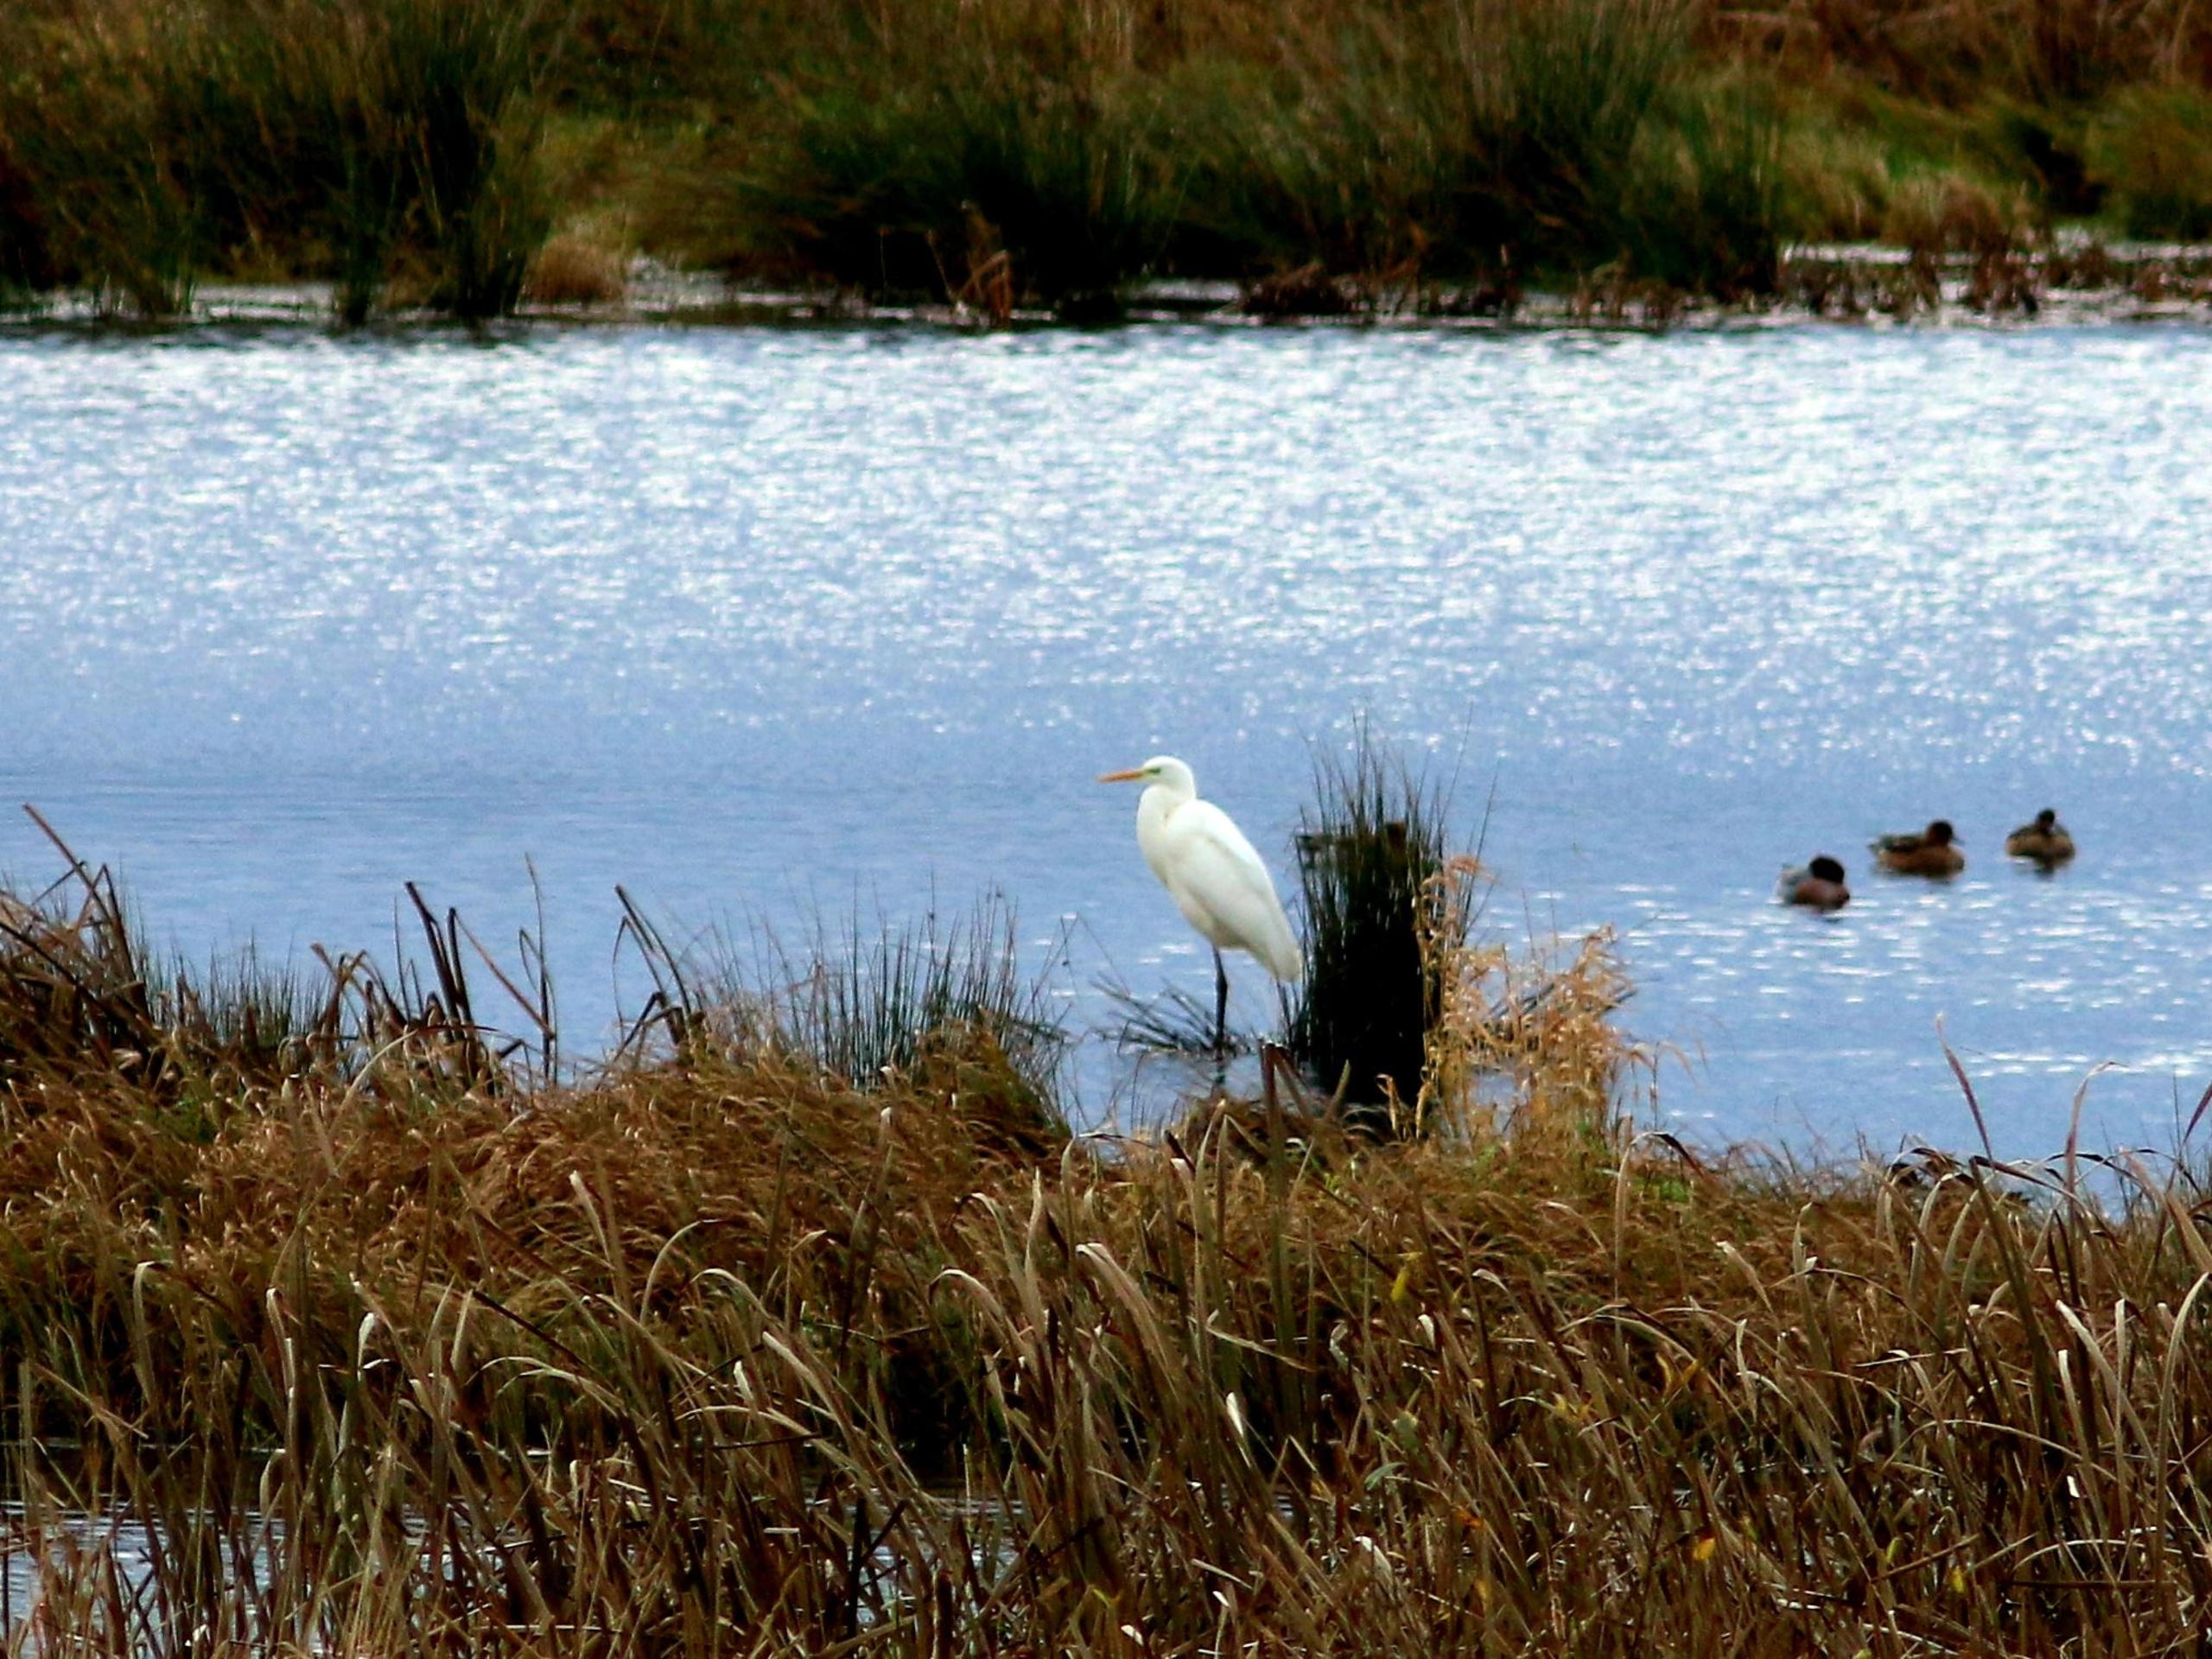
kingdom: Animalia
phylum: Chordata
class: Aves
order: Pelecaniformes
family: Ardeidae
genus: Ardea
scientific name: Ardea alba
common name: Sølvhejre
